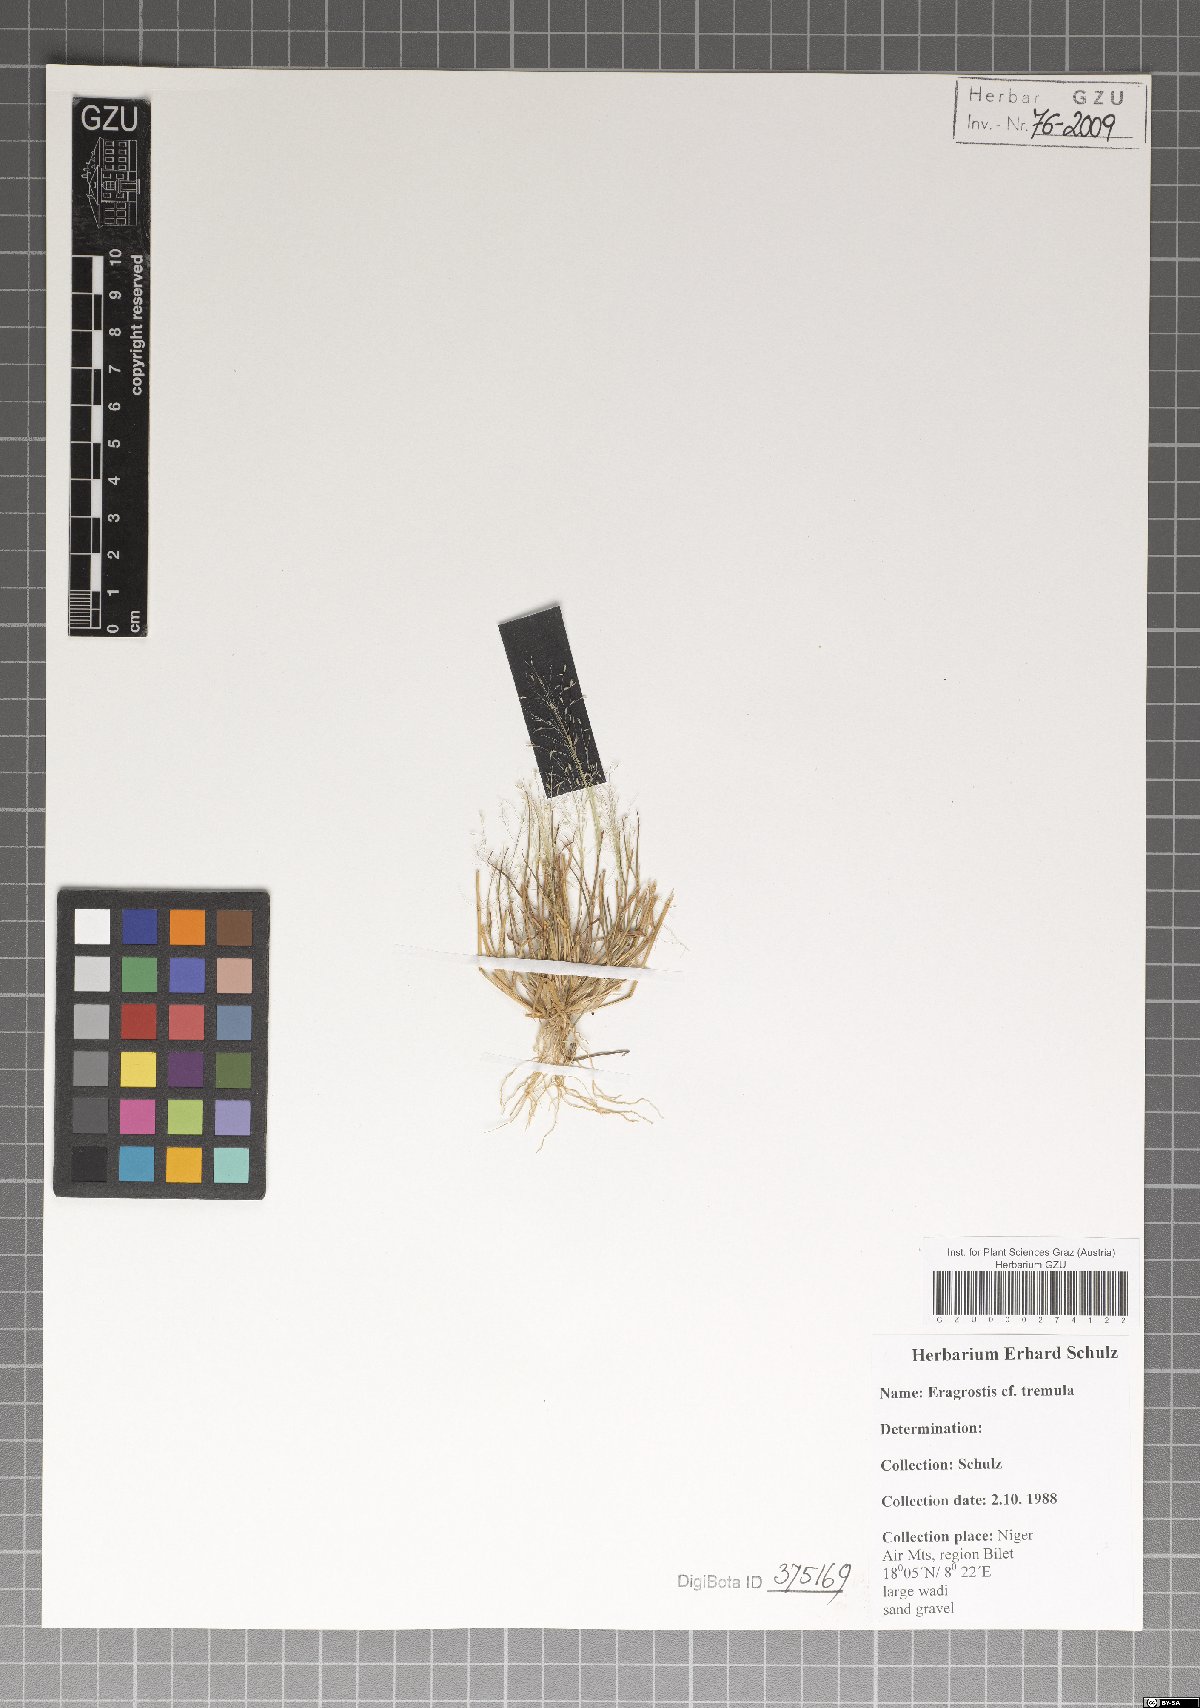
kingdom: Plantae
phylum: Tracheophyta
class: Liliopsida
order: Poales
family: Poaceae
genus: Eragrostis
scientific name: Eragrostis tremula
